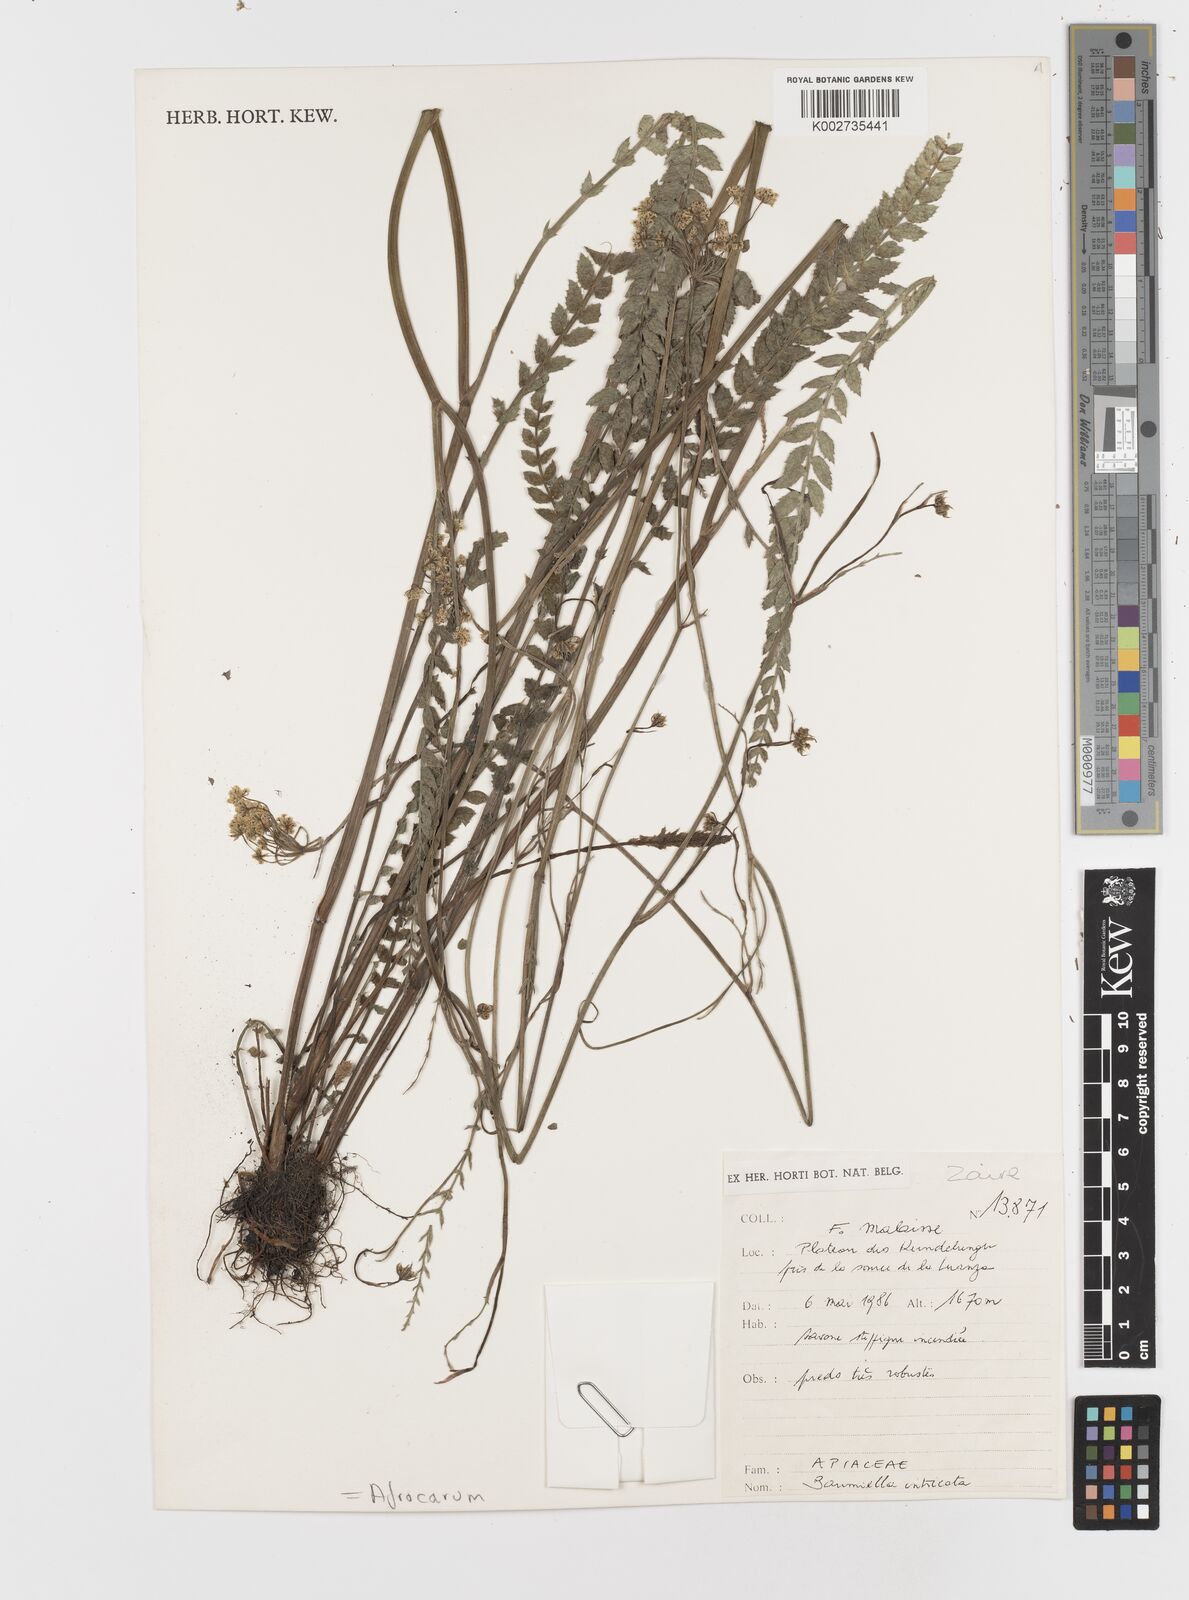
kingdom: Plantae
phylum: Tracheophyta
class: Magnoliopsida
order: Apiales
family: Apiaceae
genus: Berula
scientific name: Berula imbricata
